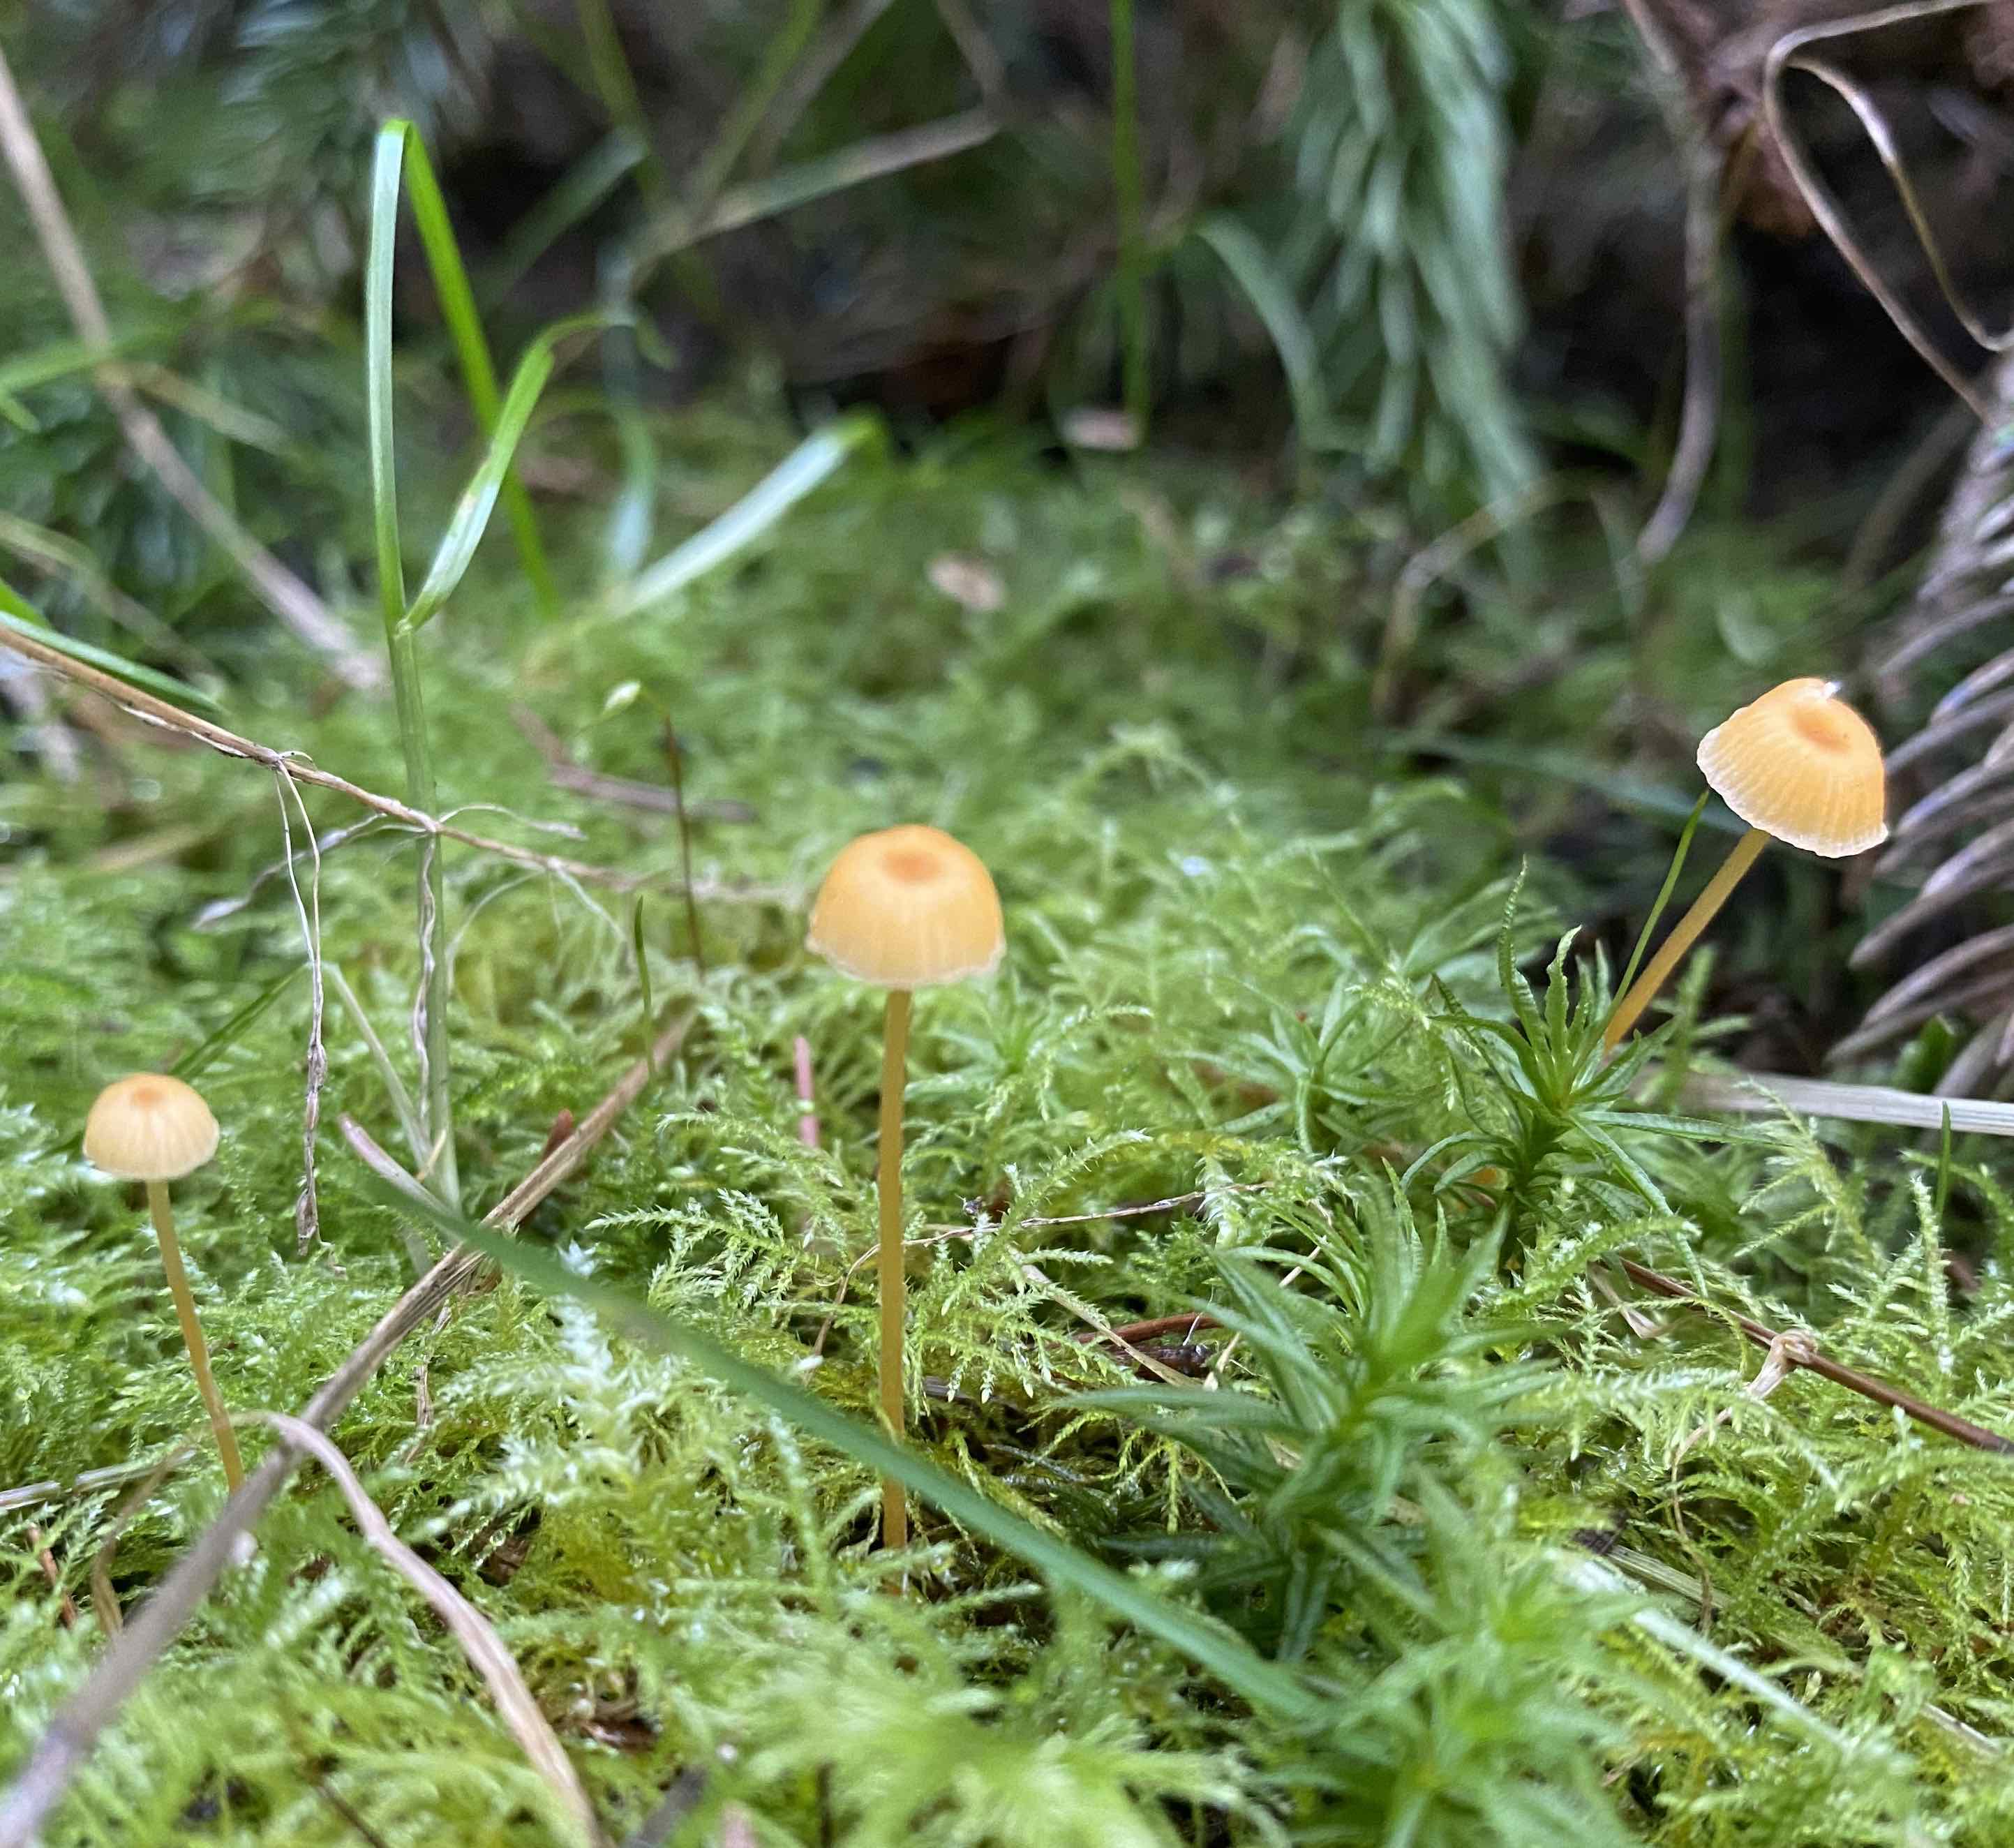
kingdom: Fungi
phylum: Basidiomycota
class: Agaricomycetes
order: Hymenochaetales
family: Rickenellaceae
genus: Rickenella
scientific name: Rickenella fibula
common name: orange mosnavlehat
